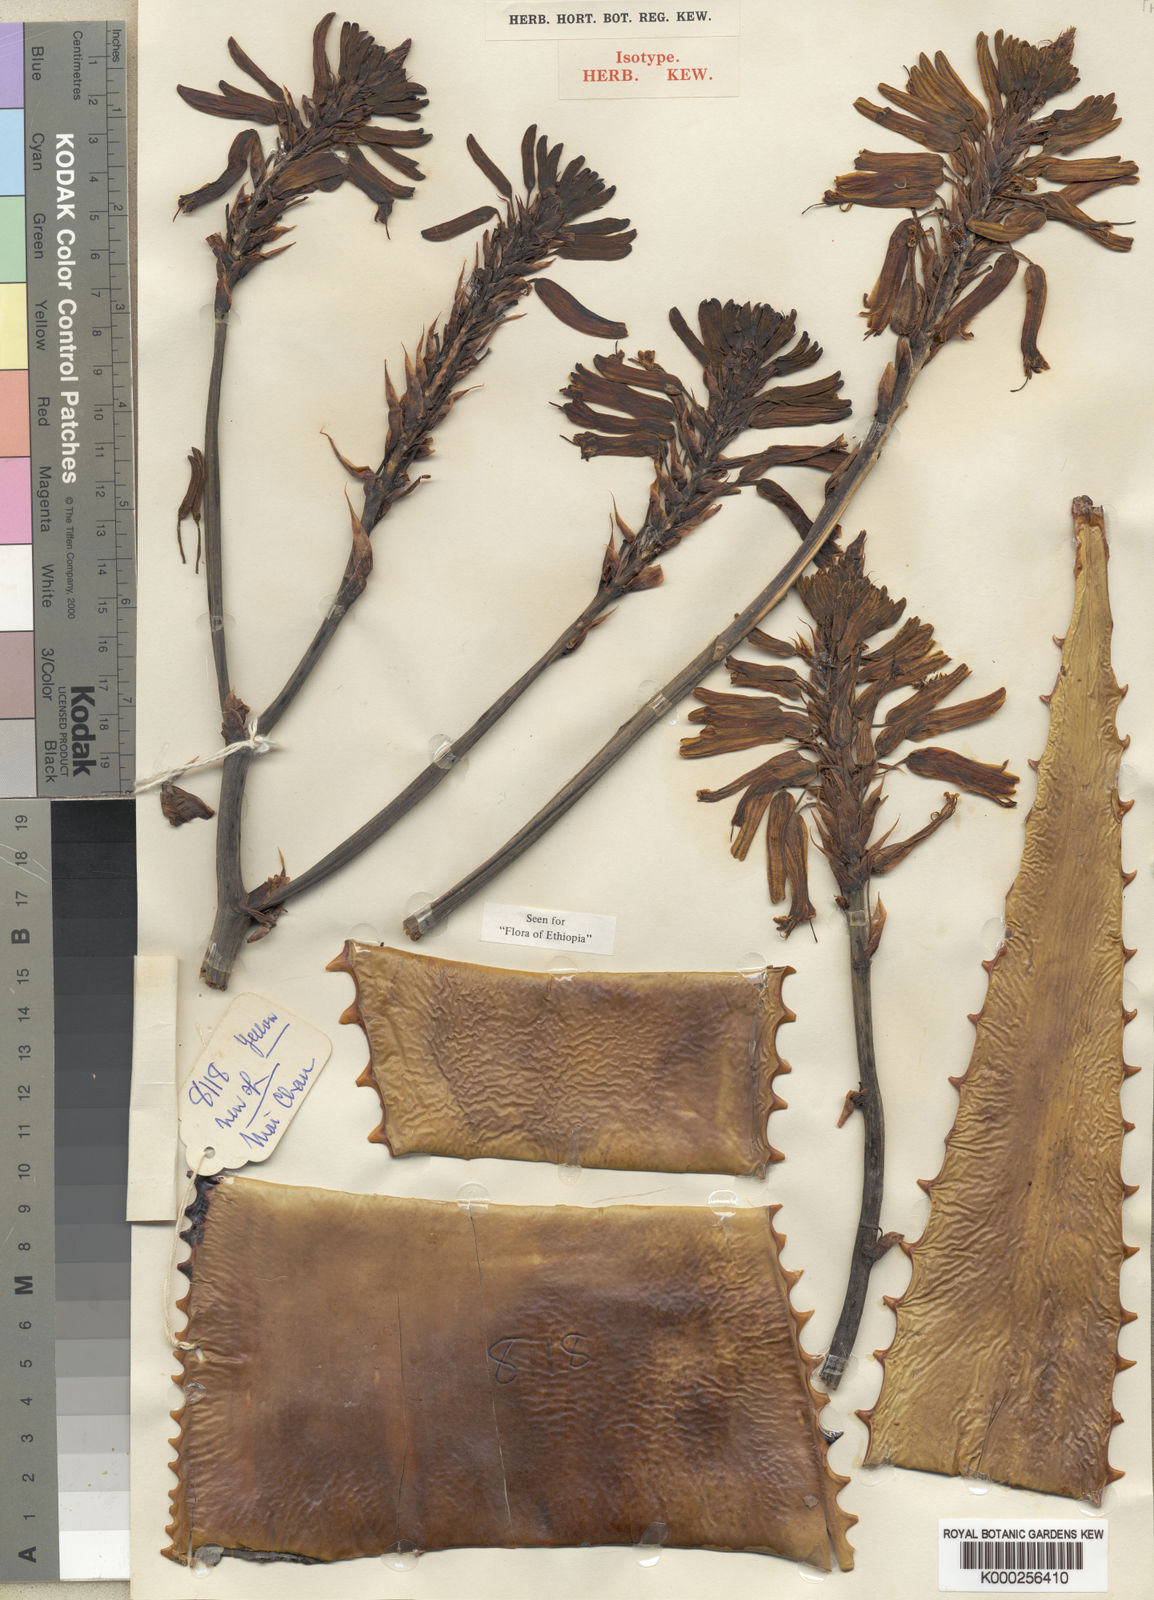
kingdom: Plantae
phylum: Tracheophyta
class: Liliopsida
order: Asparagales
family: Asphodelaceae
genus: Aloe
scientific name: Aloe monticola
